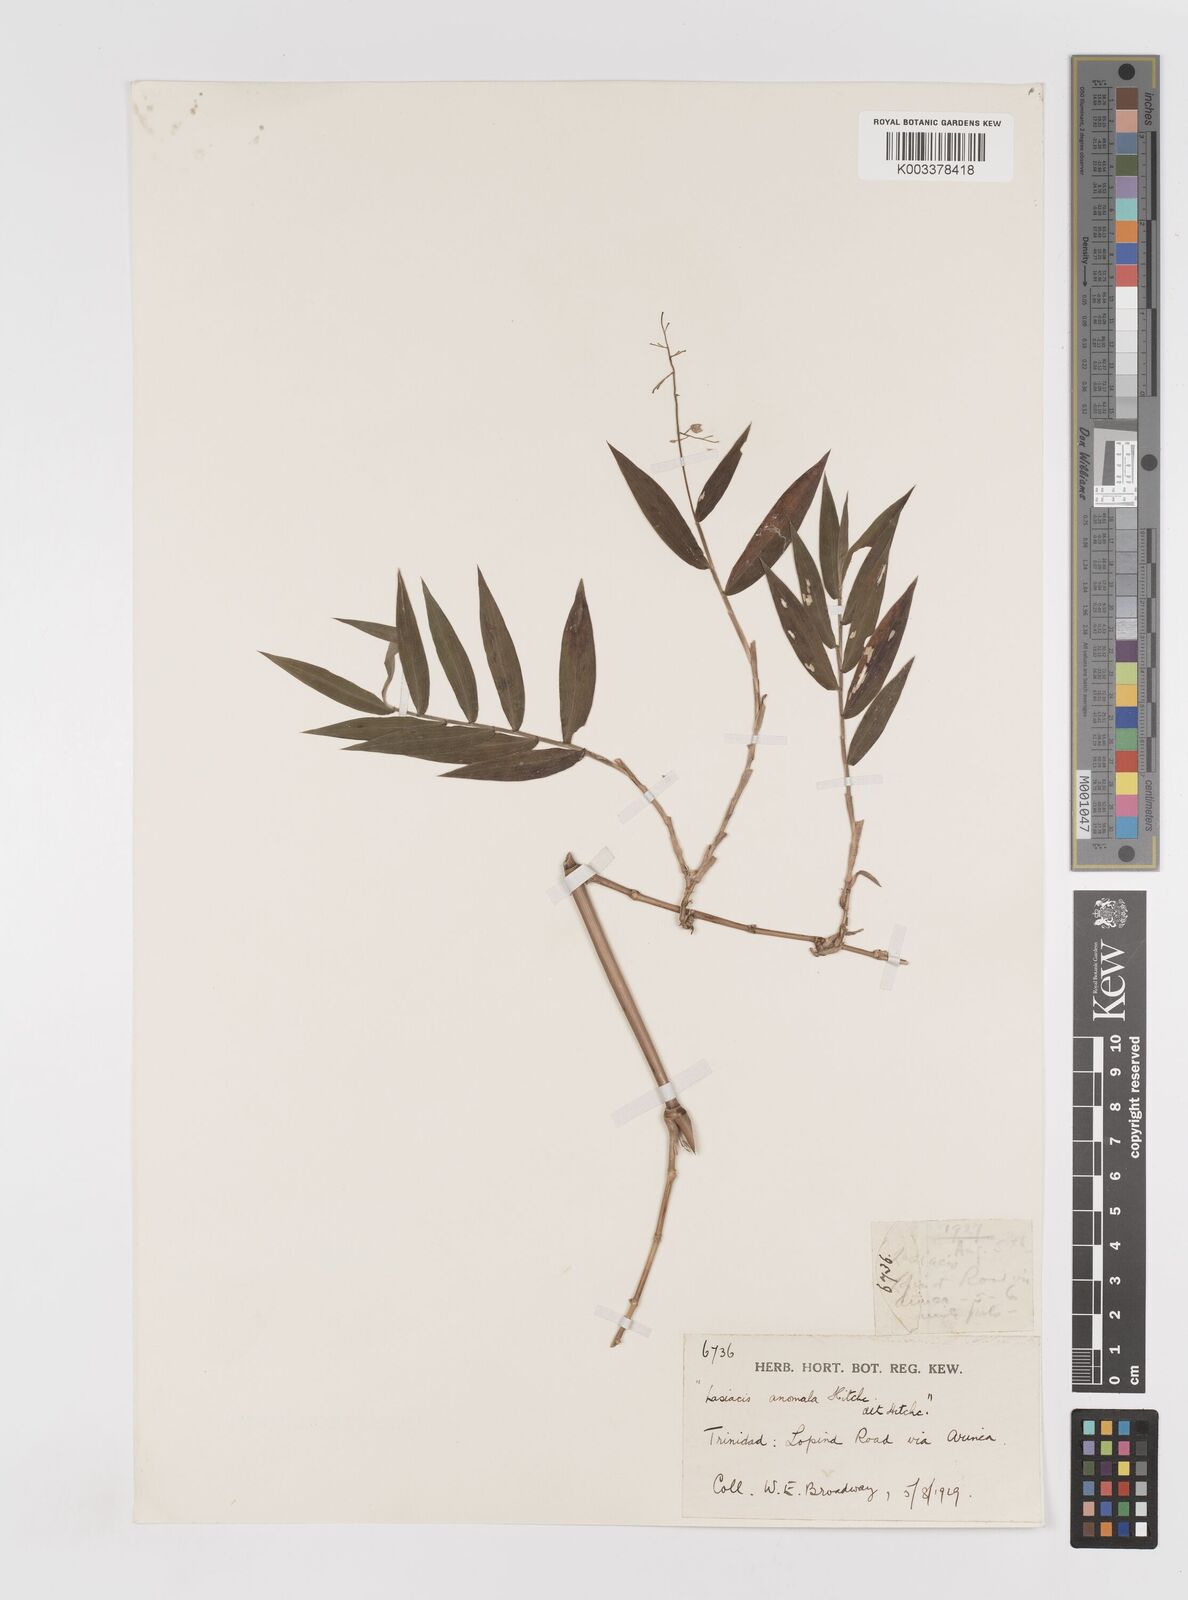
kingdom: Plantae
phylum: Tracheophyta
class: Liliopsida
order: Poales
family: Poaceae
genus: Lasiacis
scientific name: Lasiacis anomala
